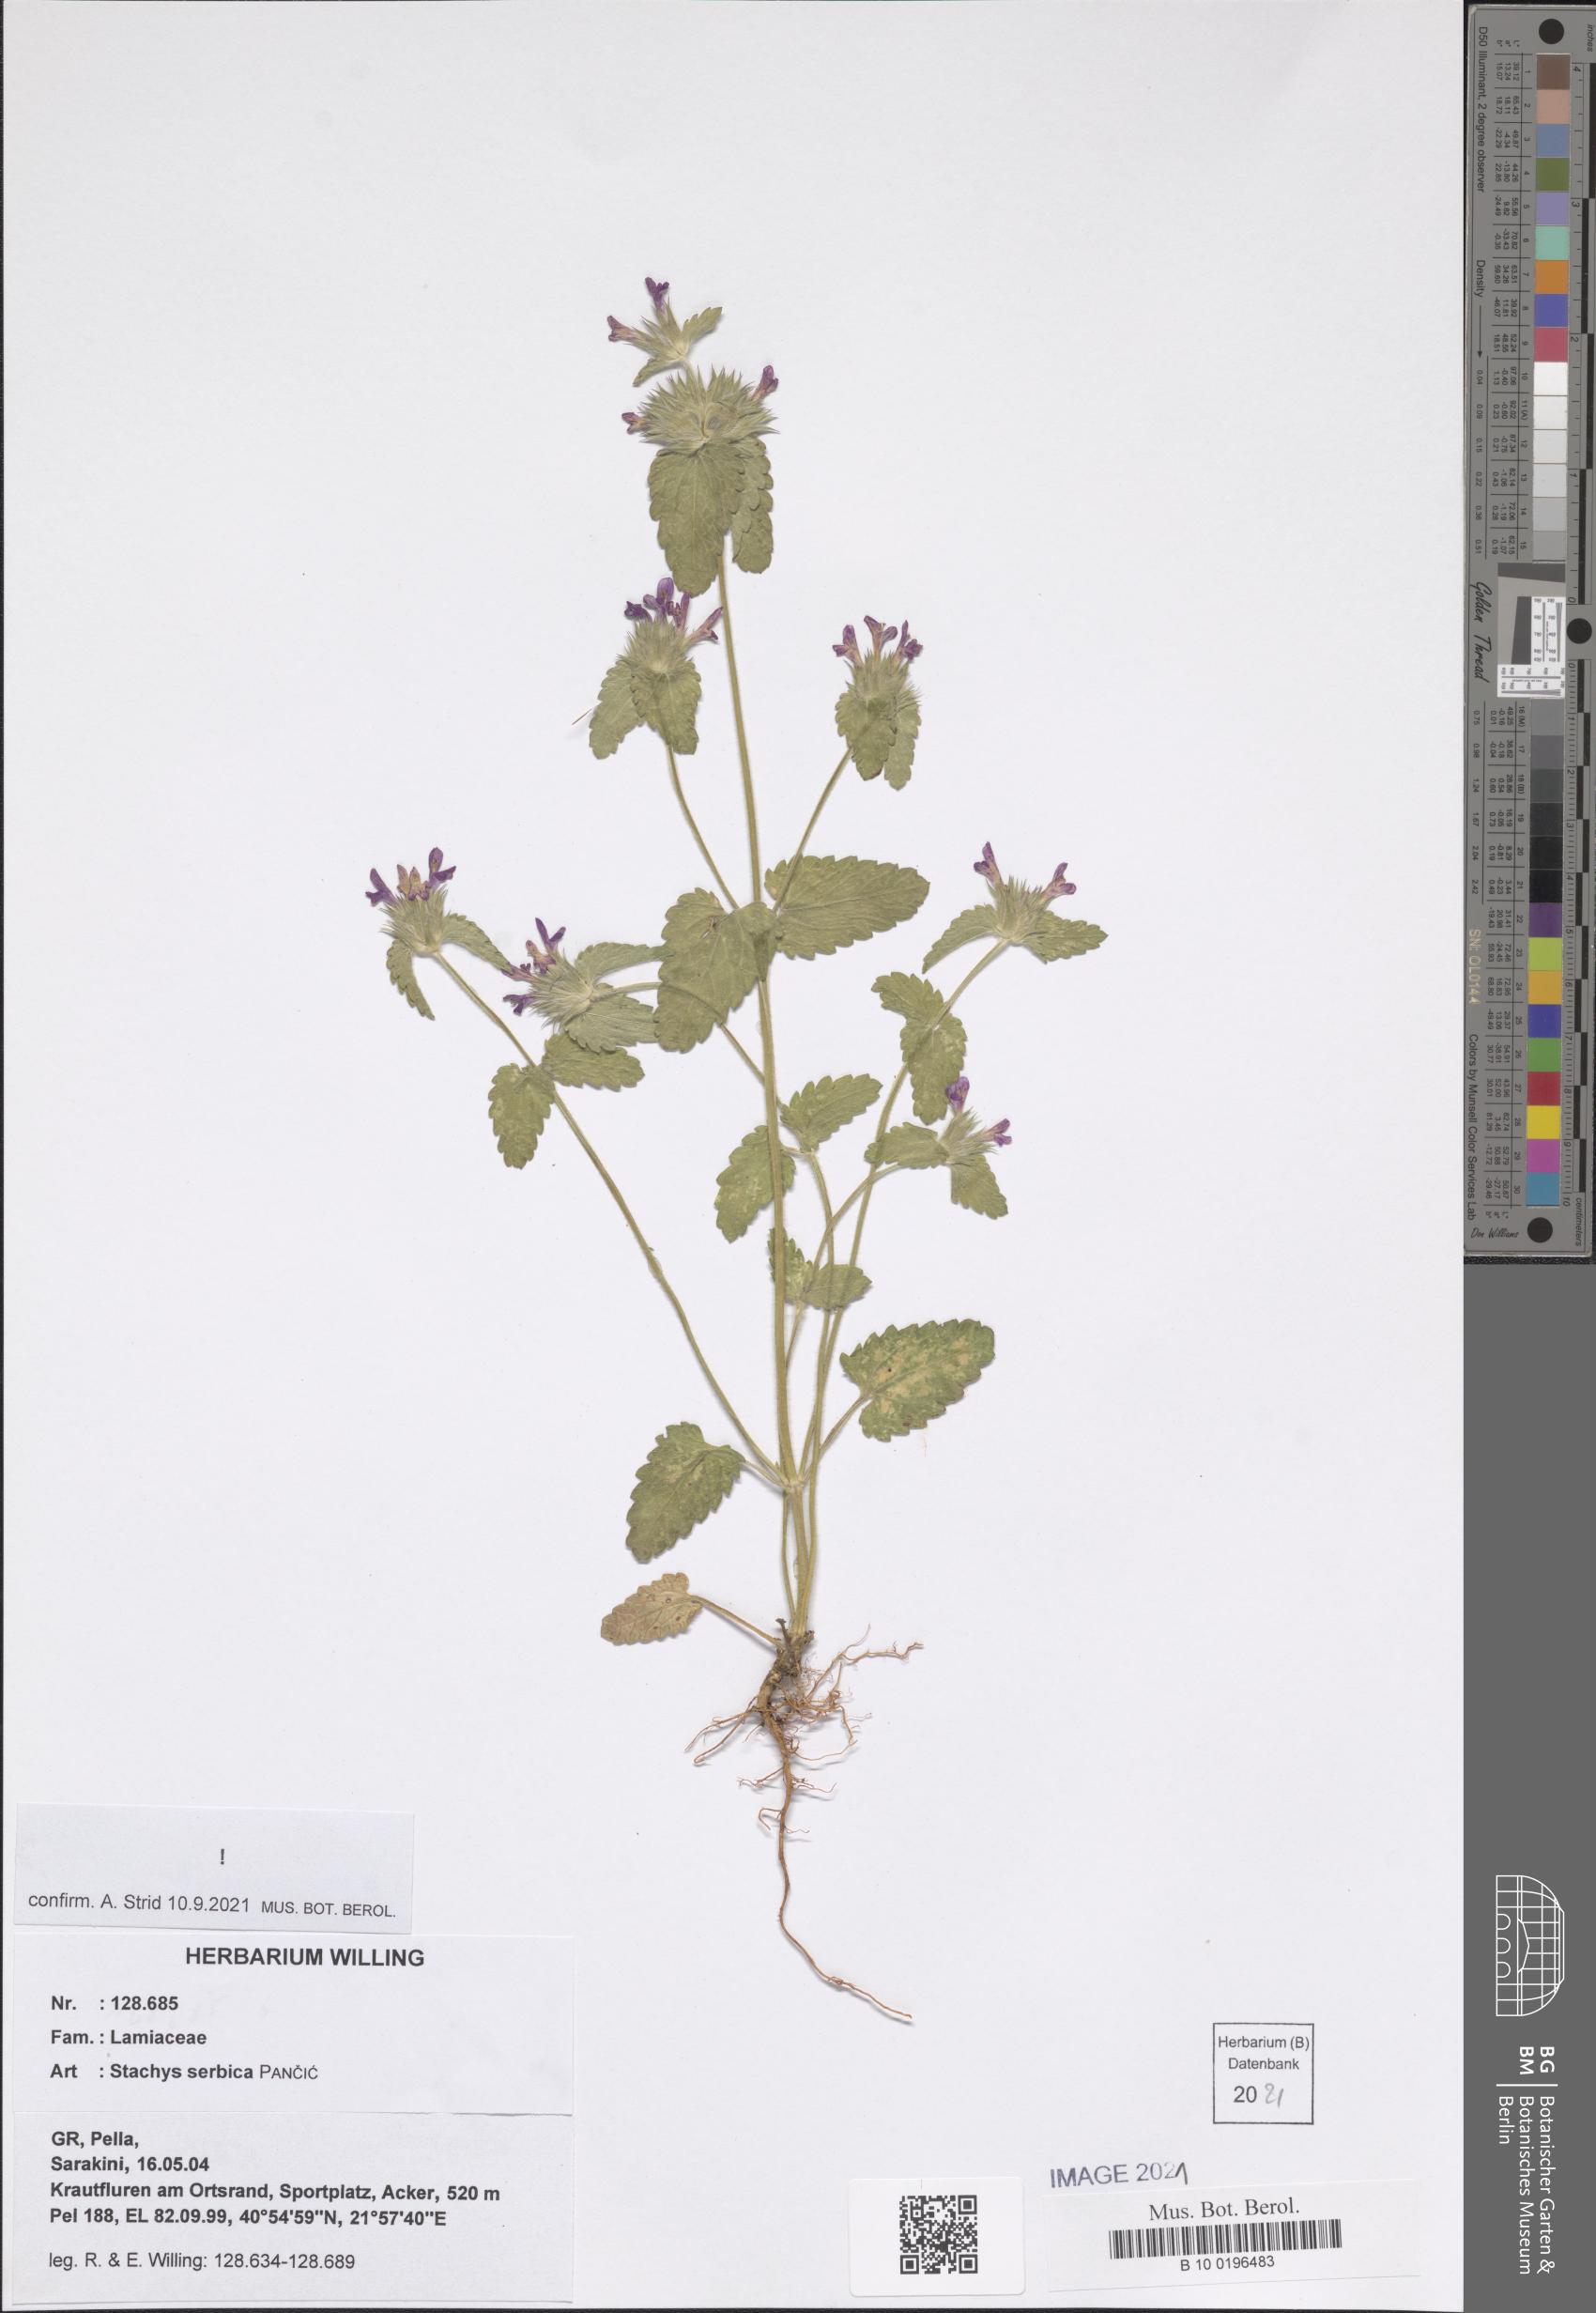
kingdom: Plantae
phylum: Tracheophyta
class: Magnoliopsida
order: Lamiales
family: Lamiaceae
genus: Stachys
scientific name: Stachys serbica
